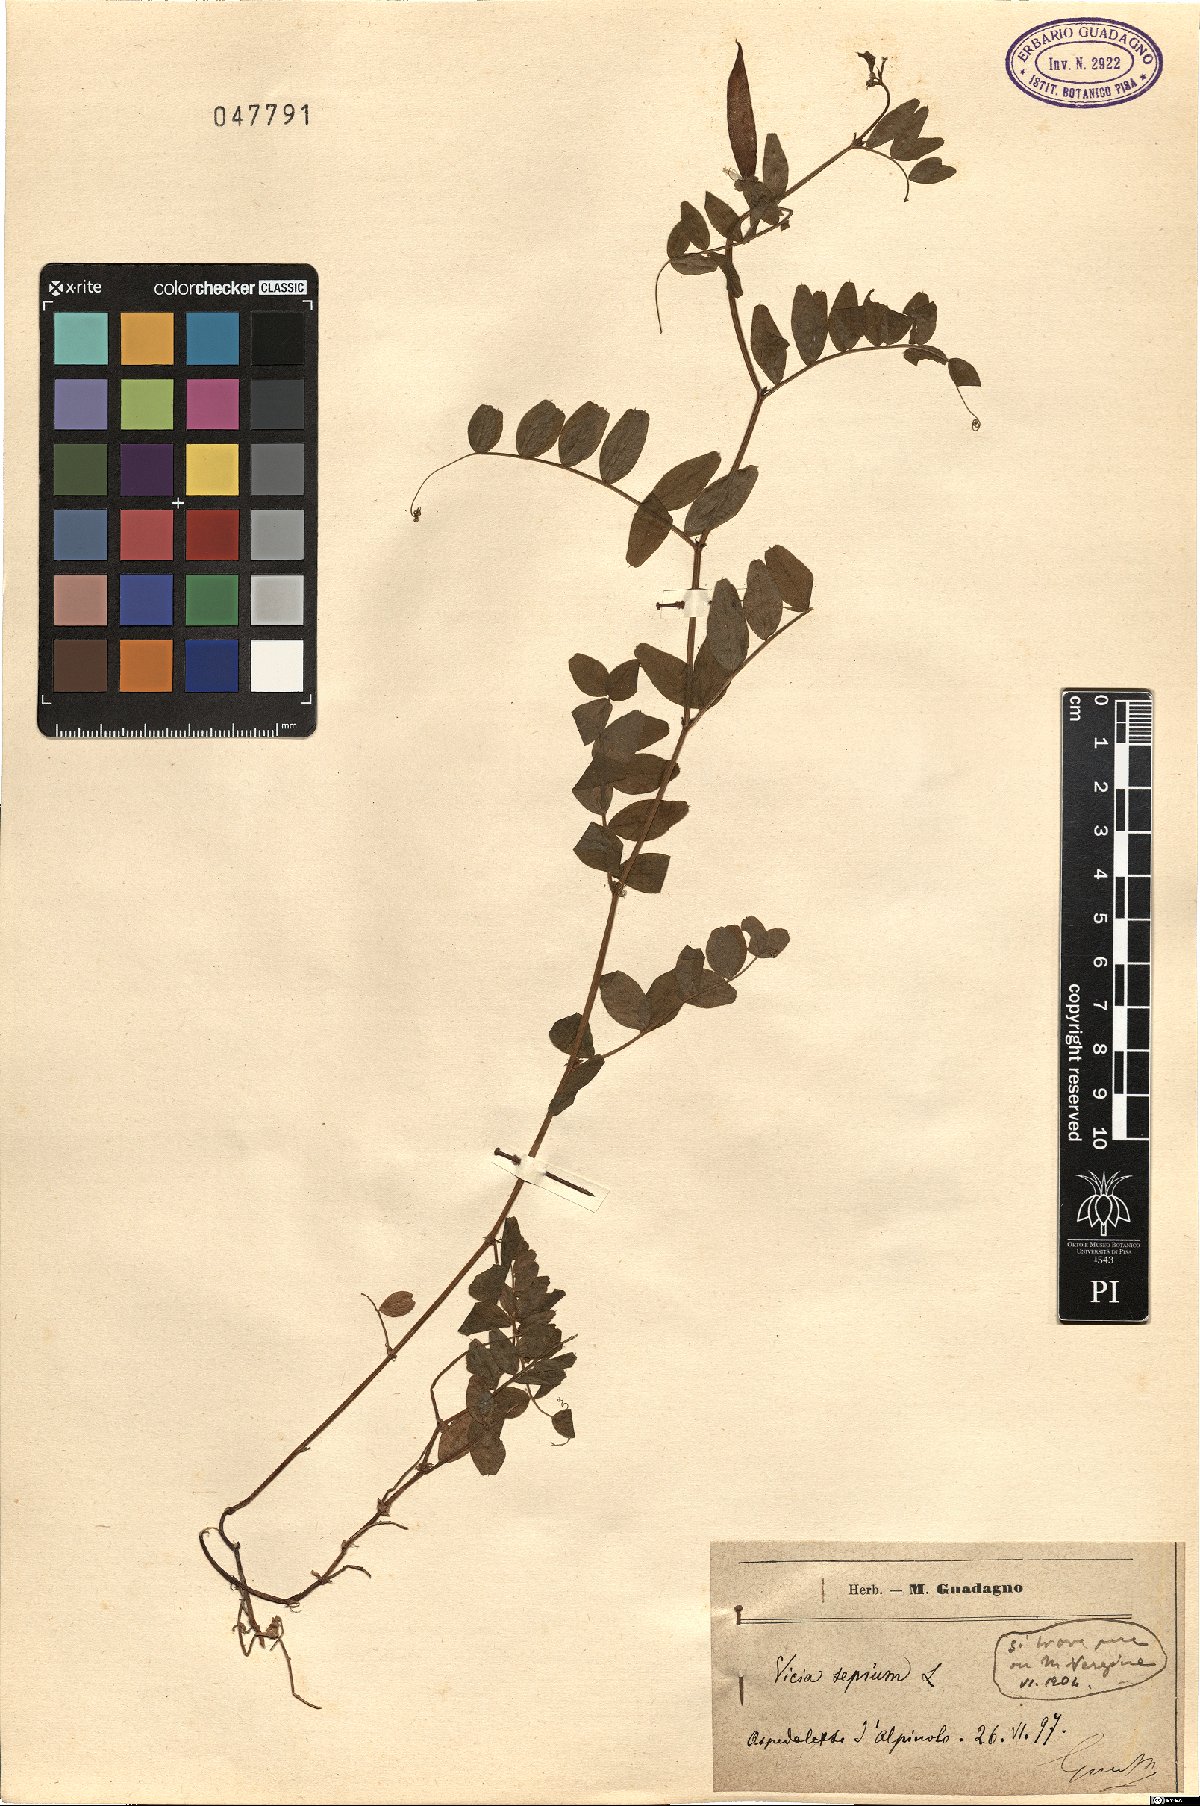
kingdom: Plantae
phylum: Tracheophyta
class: Magnoliopsida
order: Fabales
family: Fabaceae
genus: Vicia
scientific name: Vicia sepium
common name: Bush vetch
